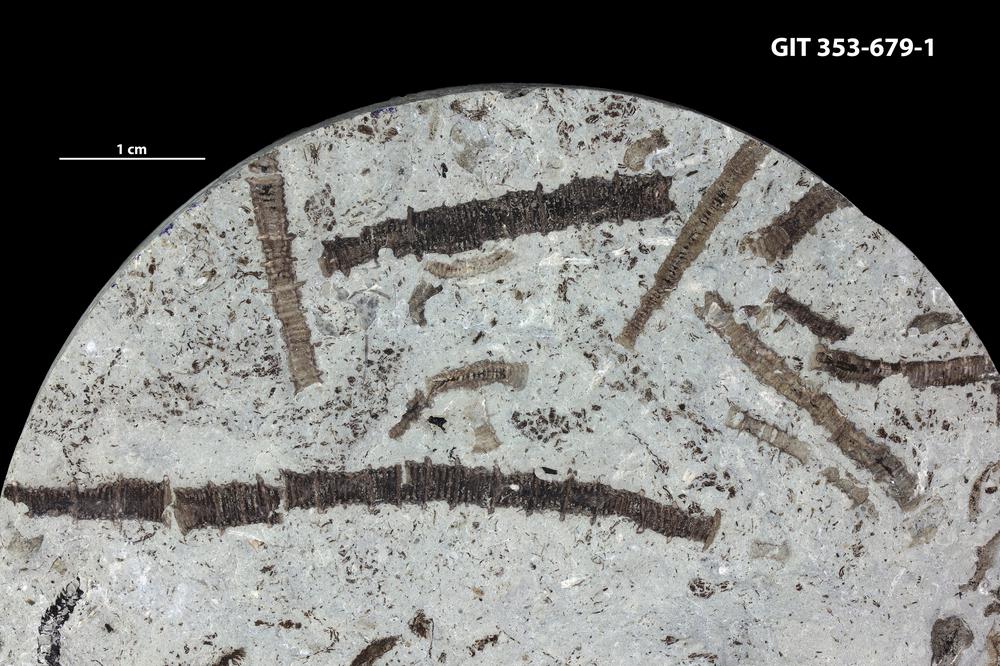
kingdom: Animalia
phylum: Echinodermata
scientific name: Echinodermata
